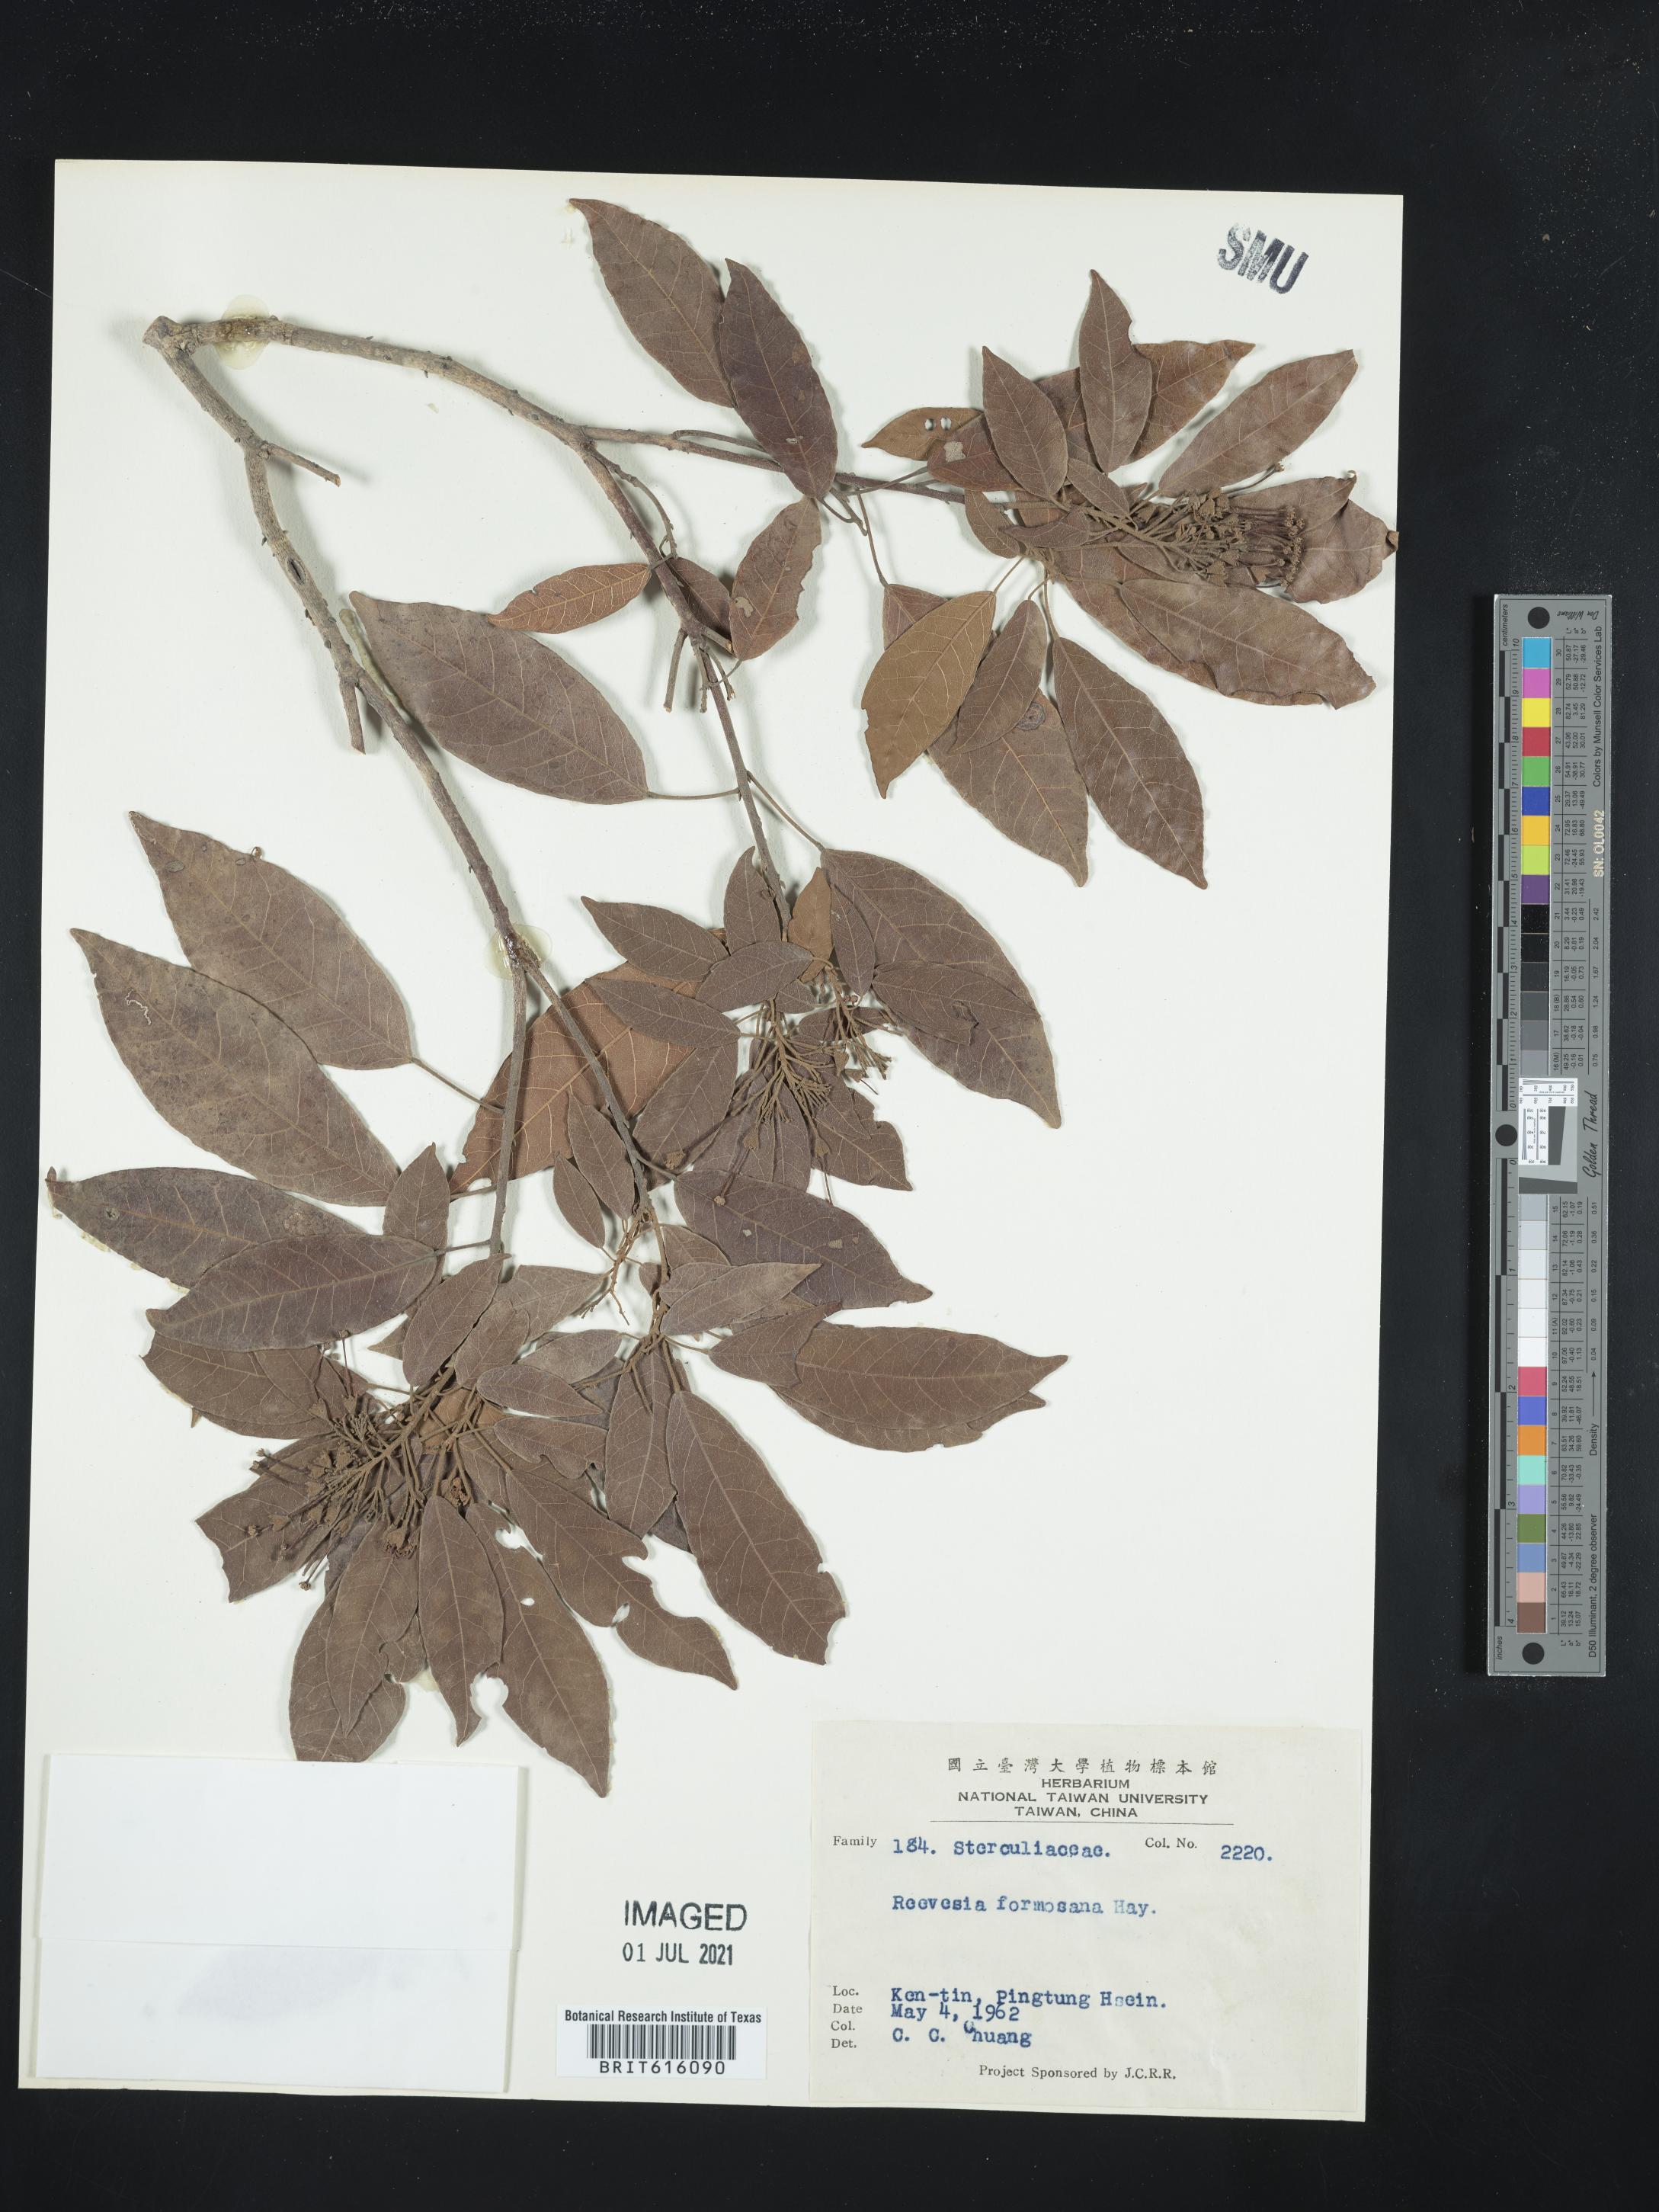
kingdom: Plantae
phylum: Tracheophyta
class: Magnoliopsida
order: Malvales
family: Malvaceae
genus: Reevesia
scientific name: Reevesia thyrsoidea
